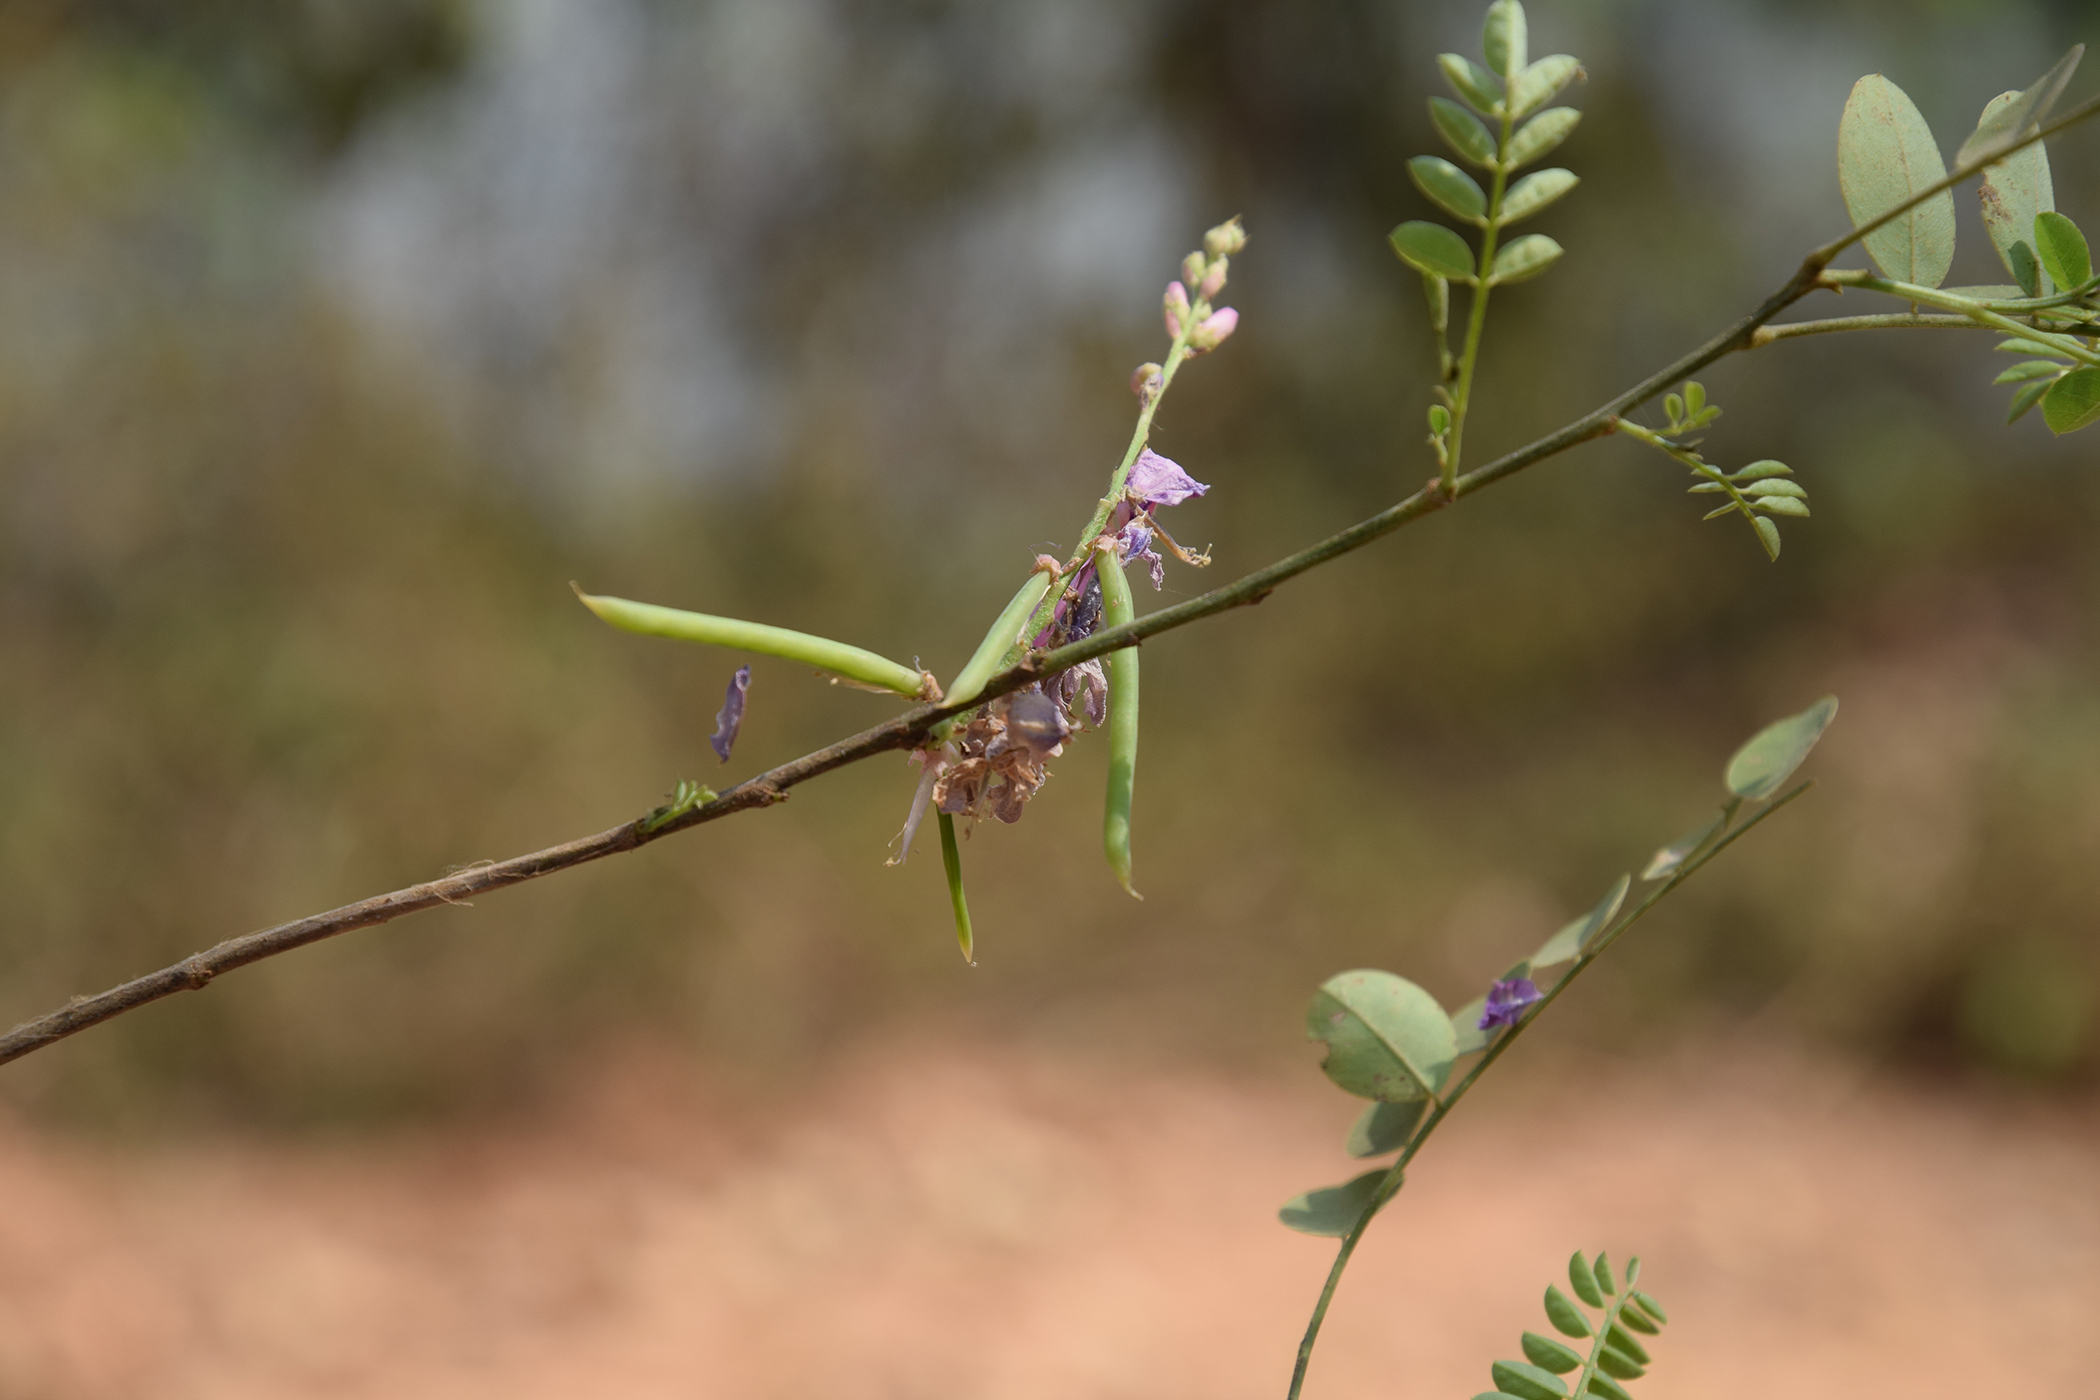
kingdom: Plantae
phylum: Tracheophyta
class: Magnoliopsida
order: Fabales
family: Fabaceae
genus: Indigofera
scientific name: Indigofera cassioides
